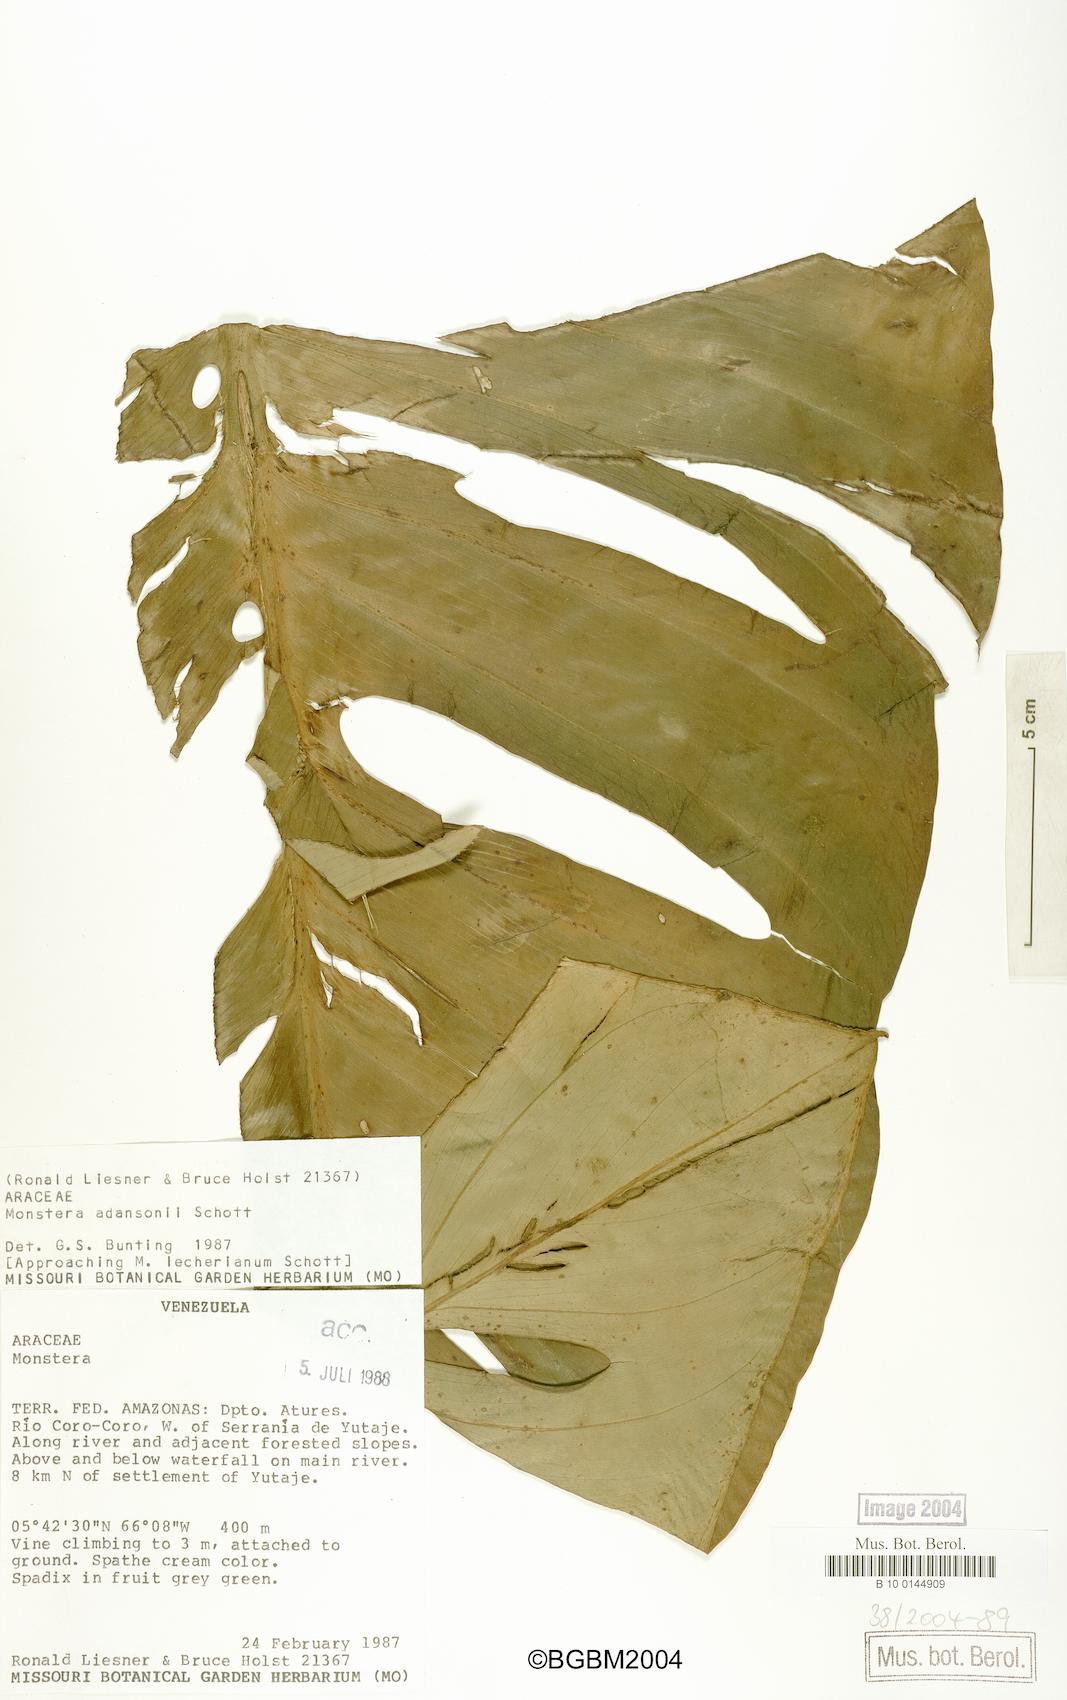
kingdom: Plantae
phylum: Tracheophyta
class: Liliopsida
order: Alismatales
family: Araceae
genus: Monstera
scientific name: Monstera adansonii
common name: Tarovine
